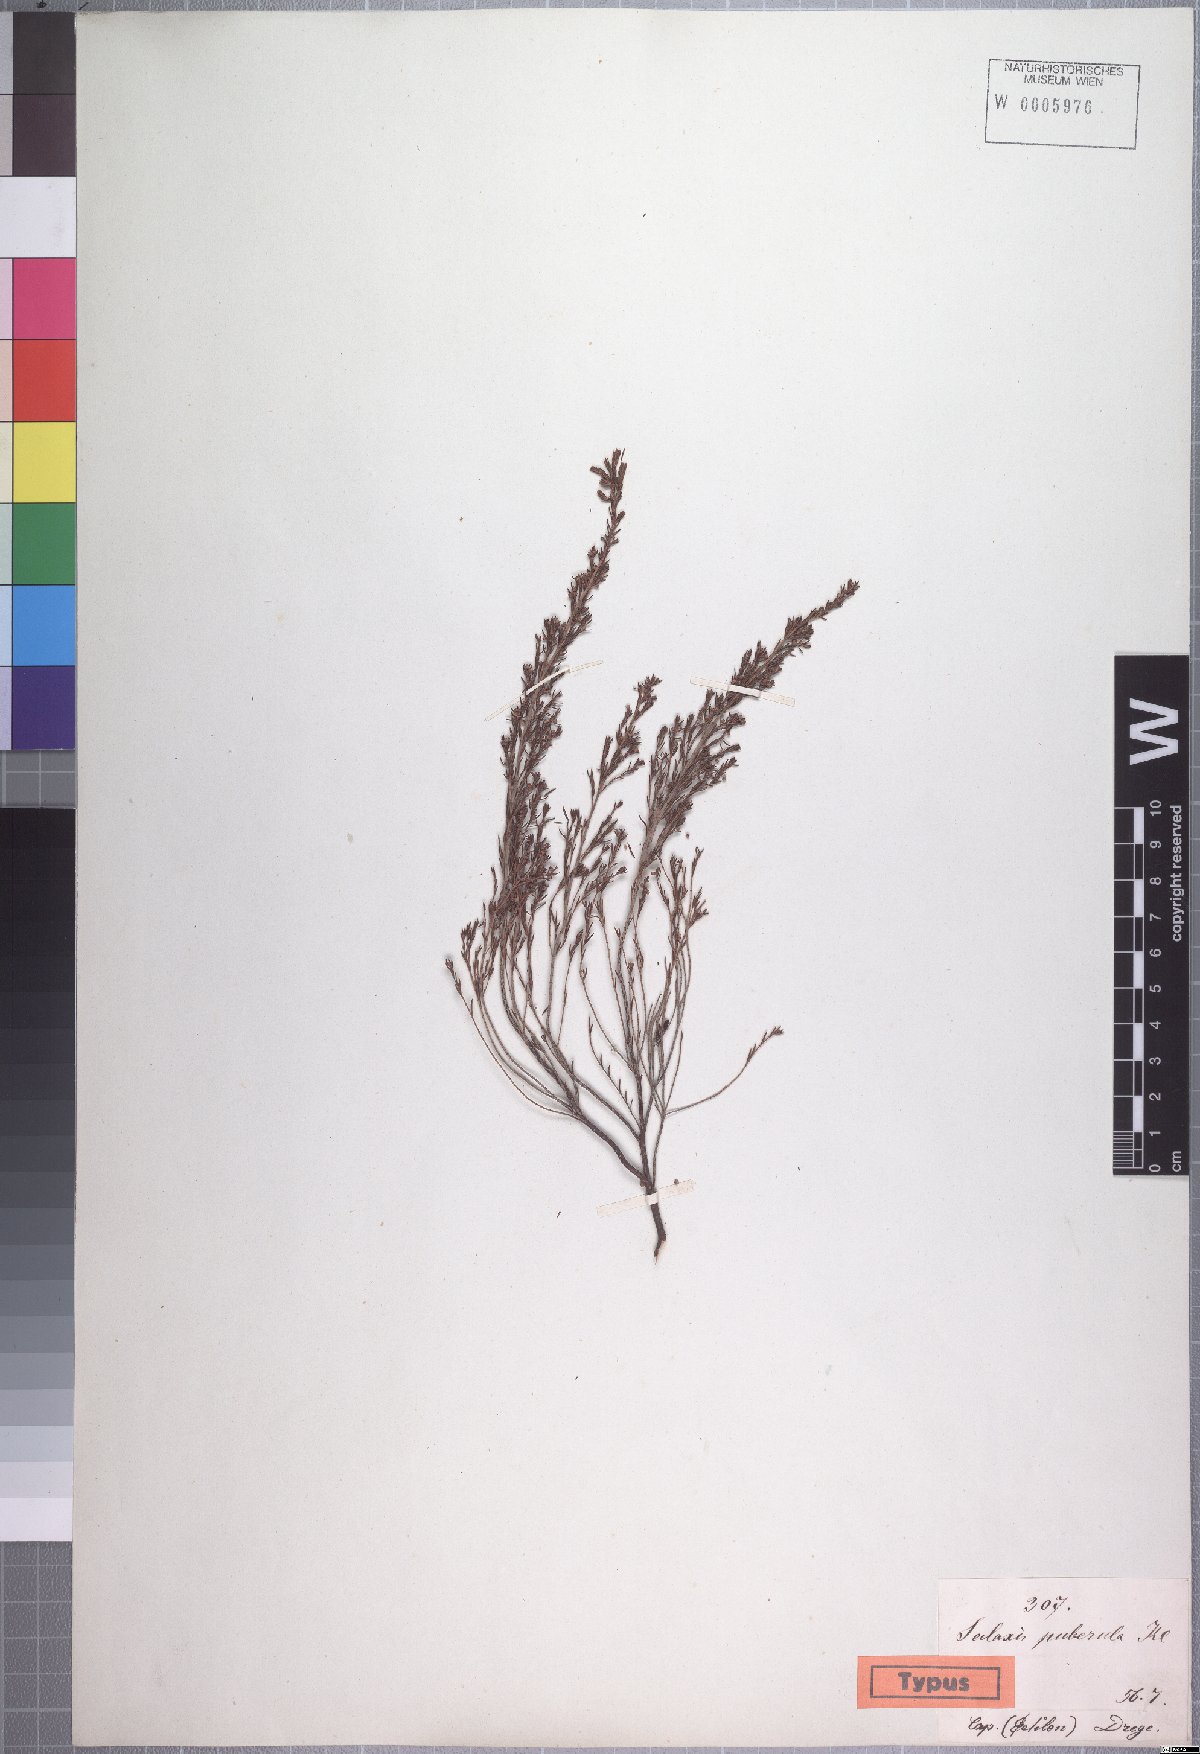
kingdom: Plantae
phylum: Tracheophyta
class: Magnoliopsida
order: Ericales
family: Ericaceae
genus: Erica
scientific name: Erica axillaris
